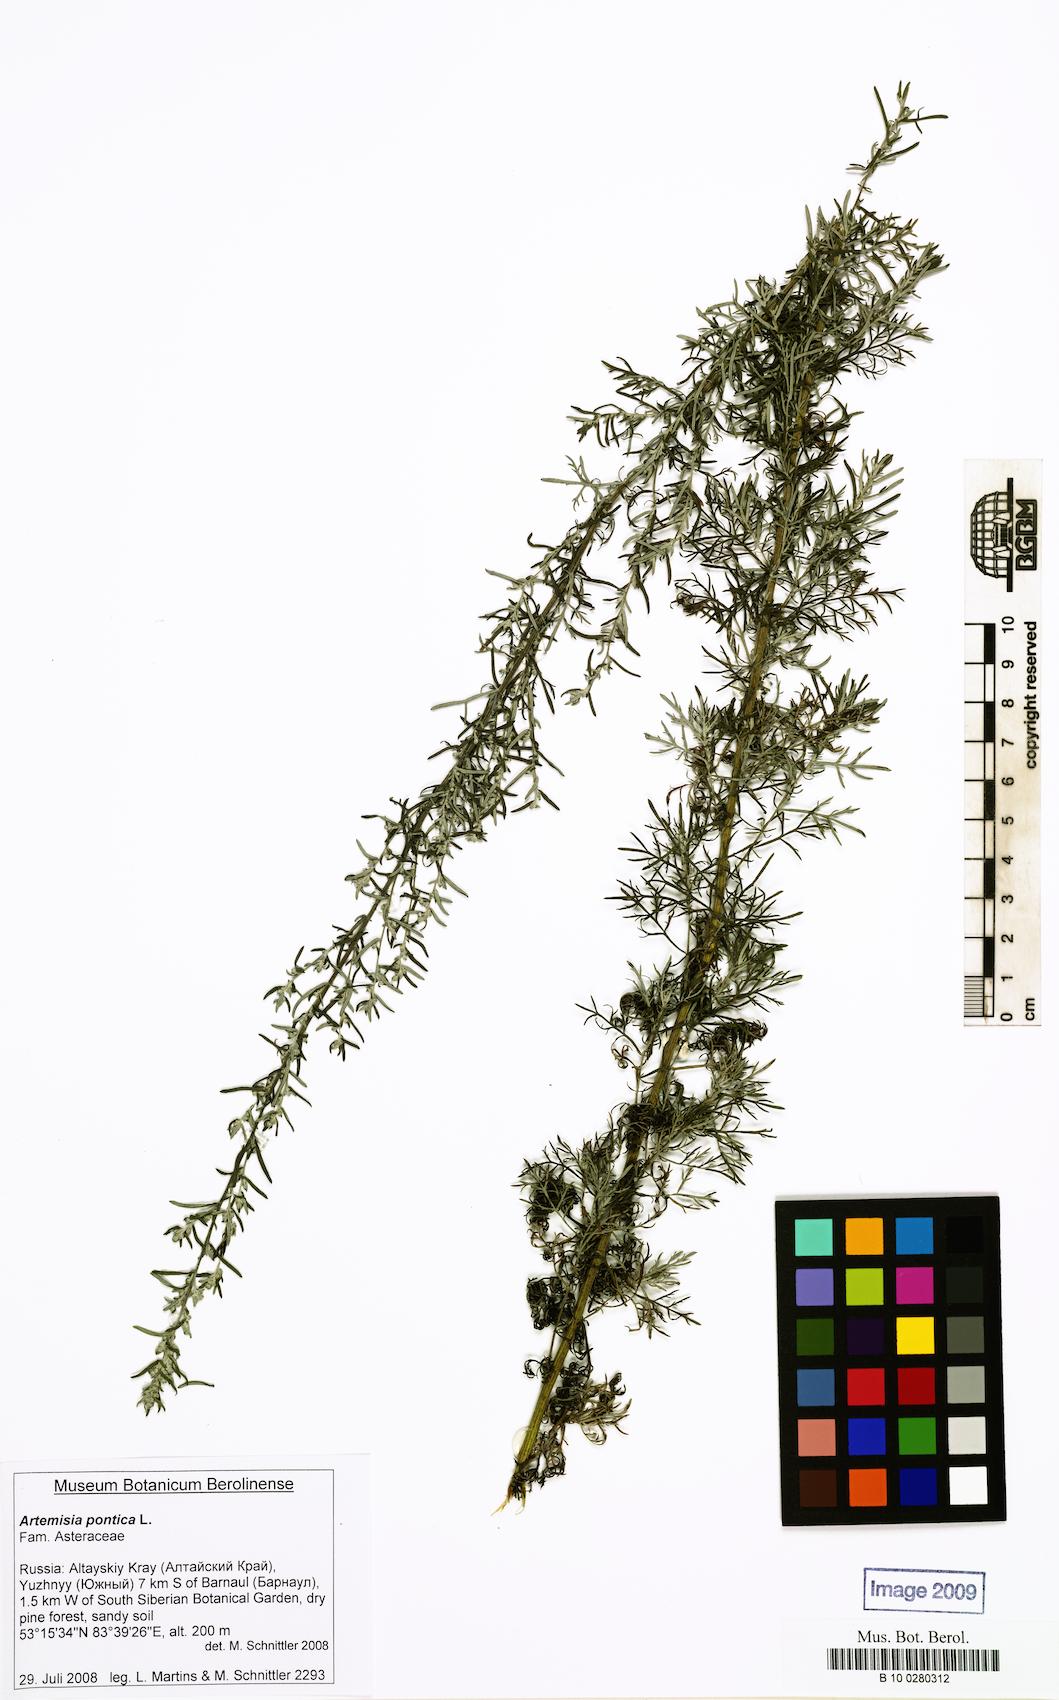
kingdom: Plantae
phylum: Tracheophyta
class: Magnoliopsida
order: Asterales
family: Asteraceae
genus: Artemisia
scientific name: Artemisia pontica
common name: Roman wormwood
